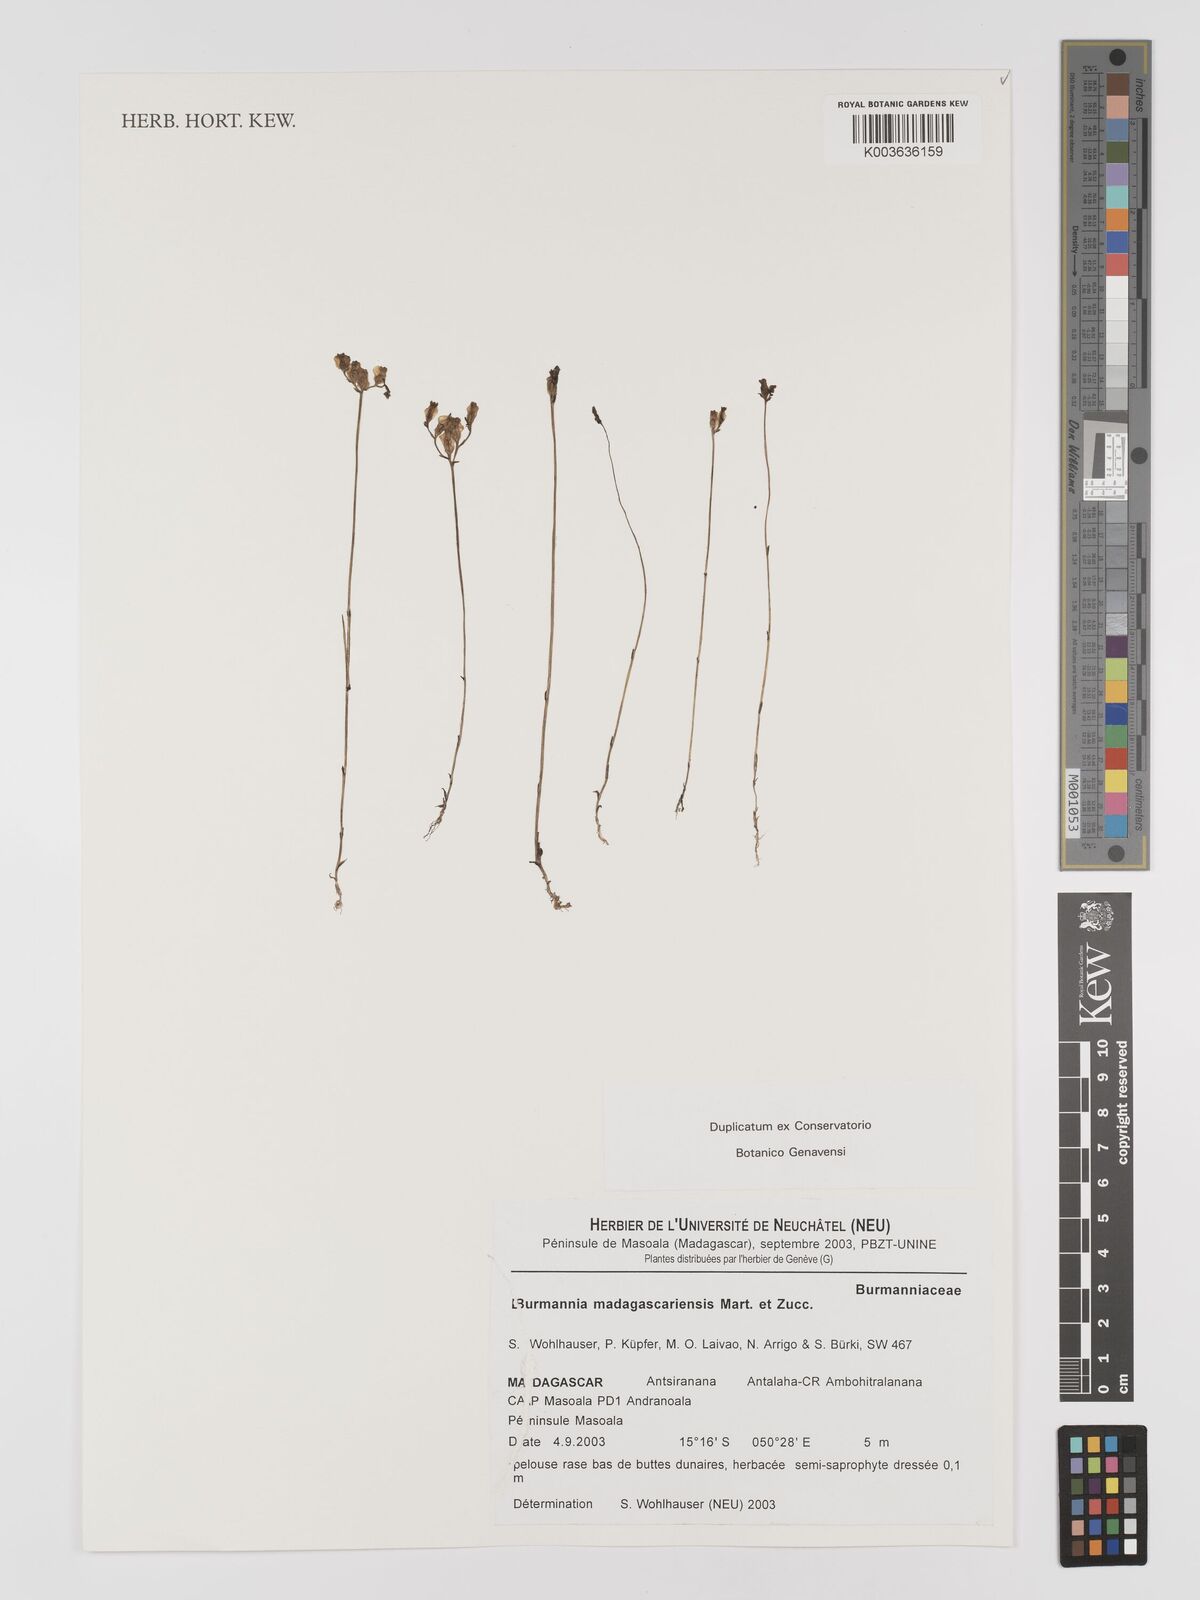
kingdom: Plantae
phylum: Tracheophyta
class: Liliopsida
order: Dioscoreales
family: Burmanniaceae
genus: Burmannia
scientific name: Burmannia madagascariensis
